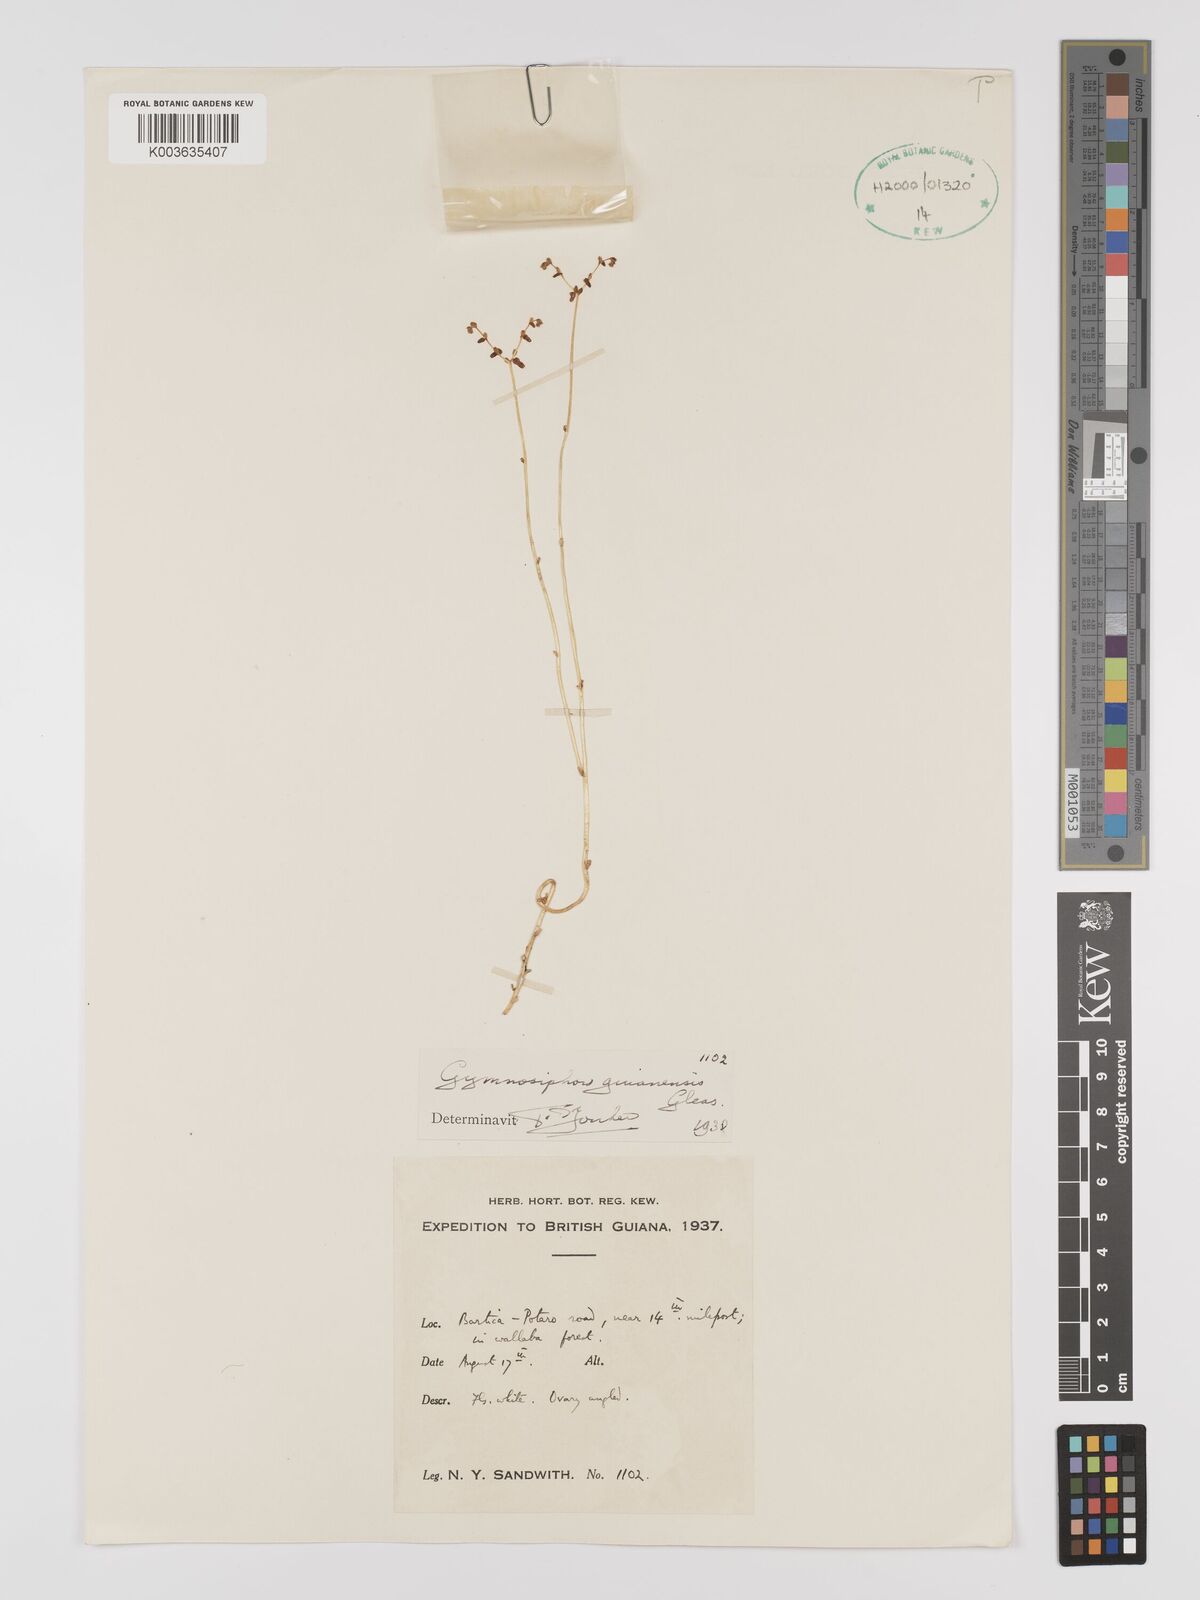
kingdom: Plantae
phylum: Tracheophyta
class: Liliopsida
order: Dioscoreales
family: Burmanniaceae
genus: Gymnosiphon
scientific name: Gymnosiphon guianensis
